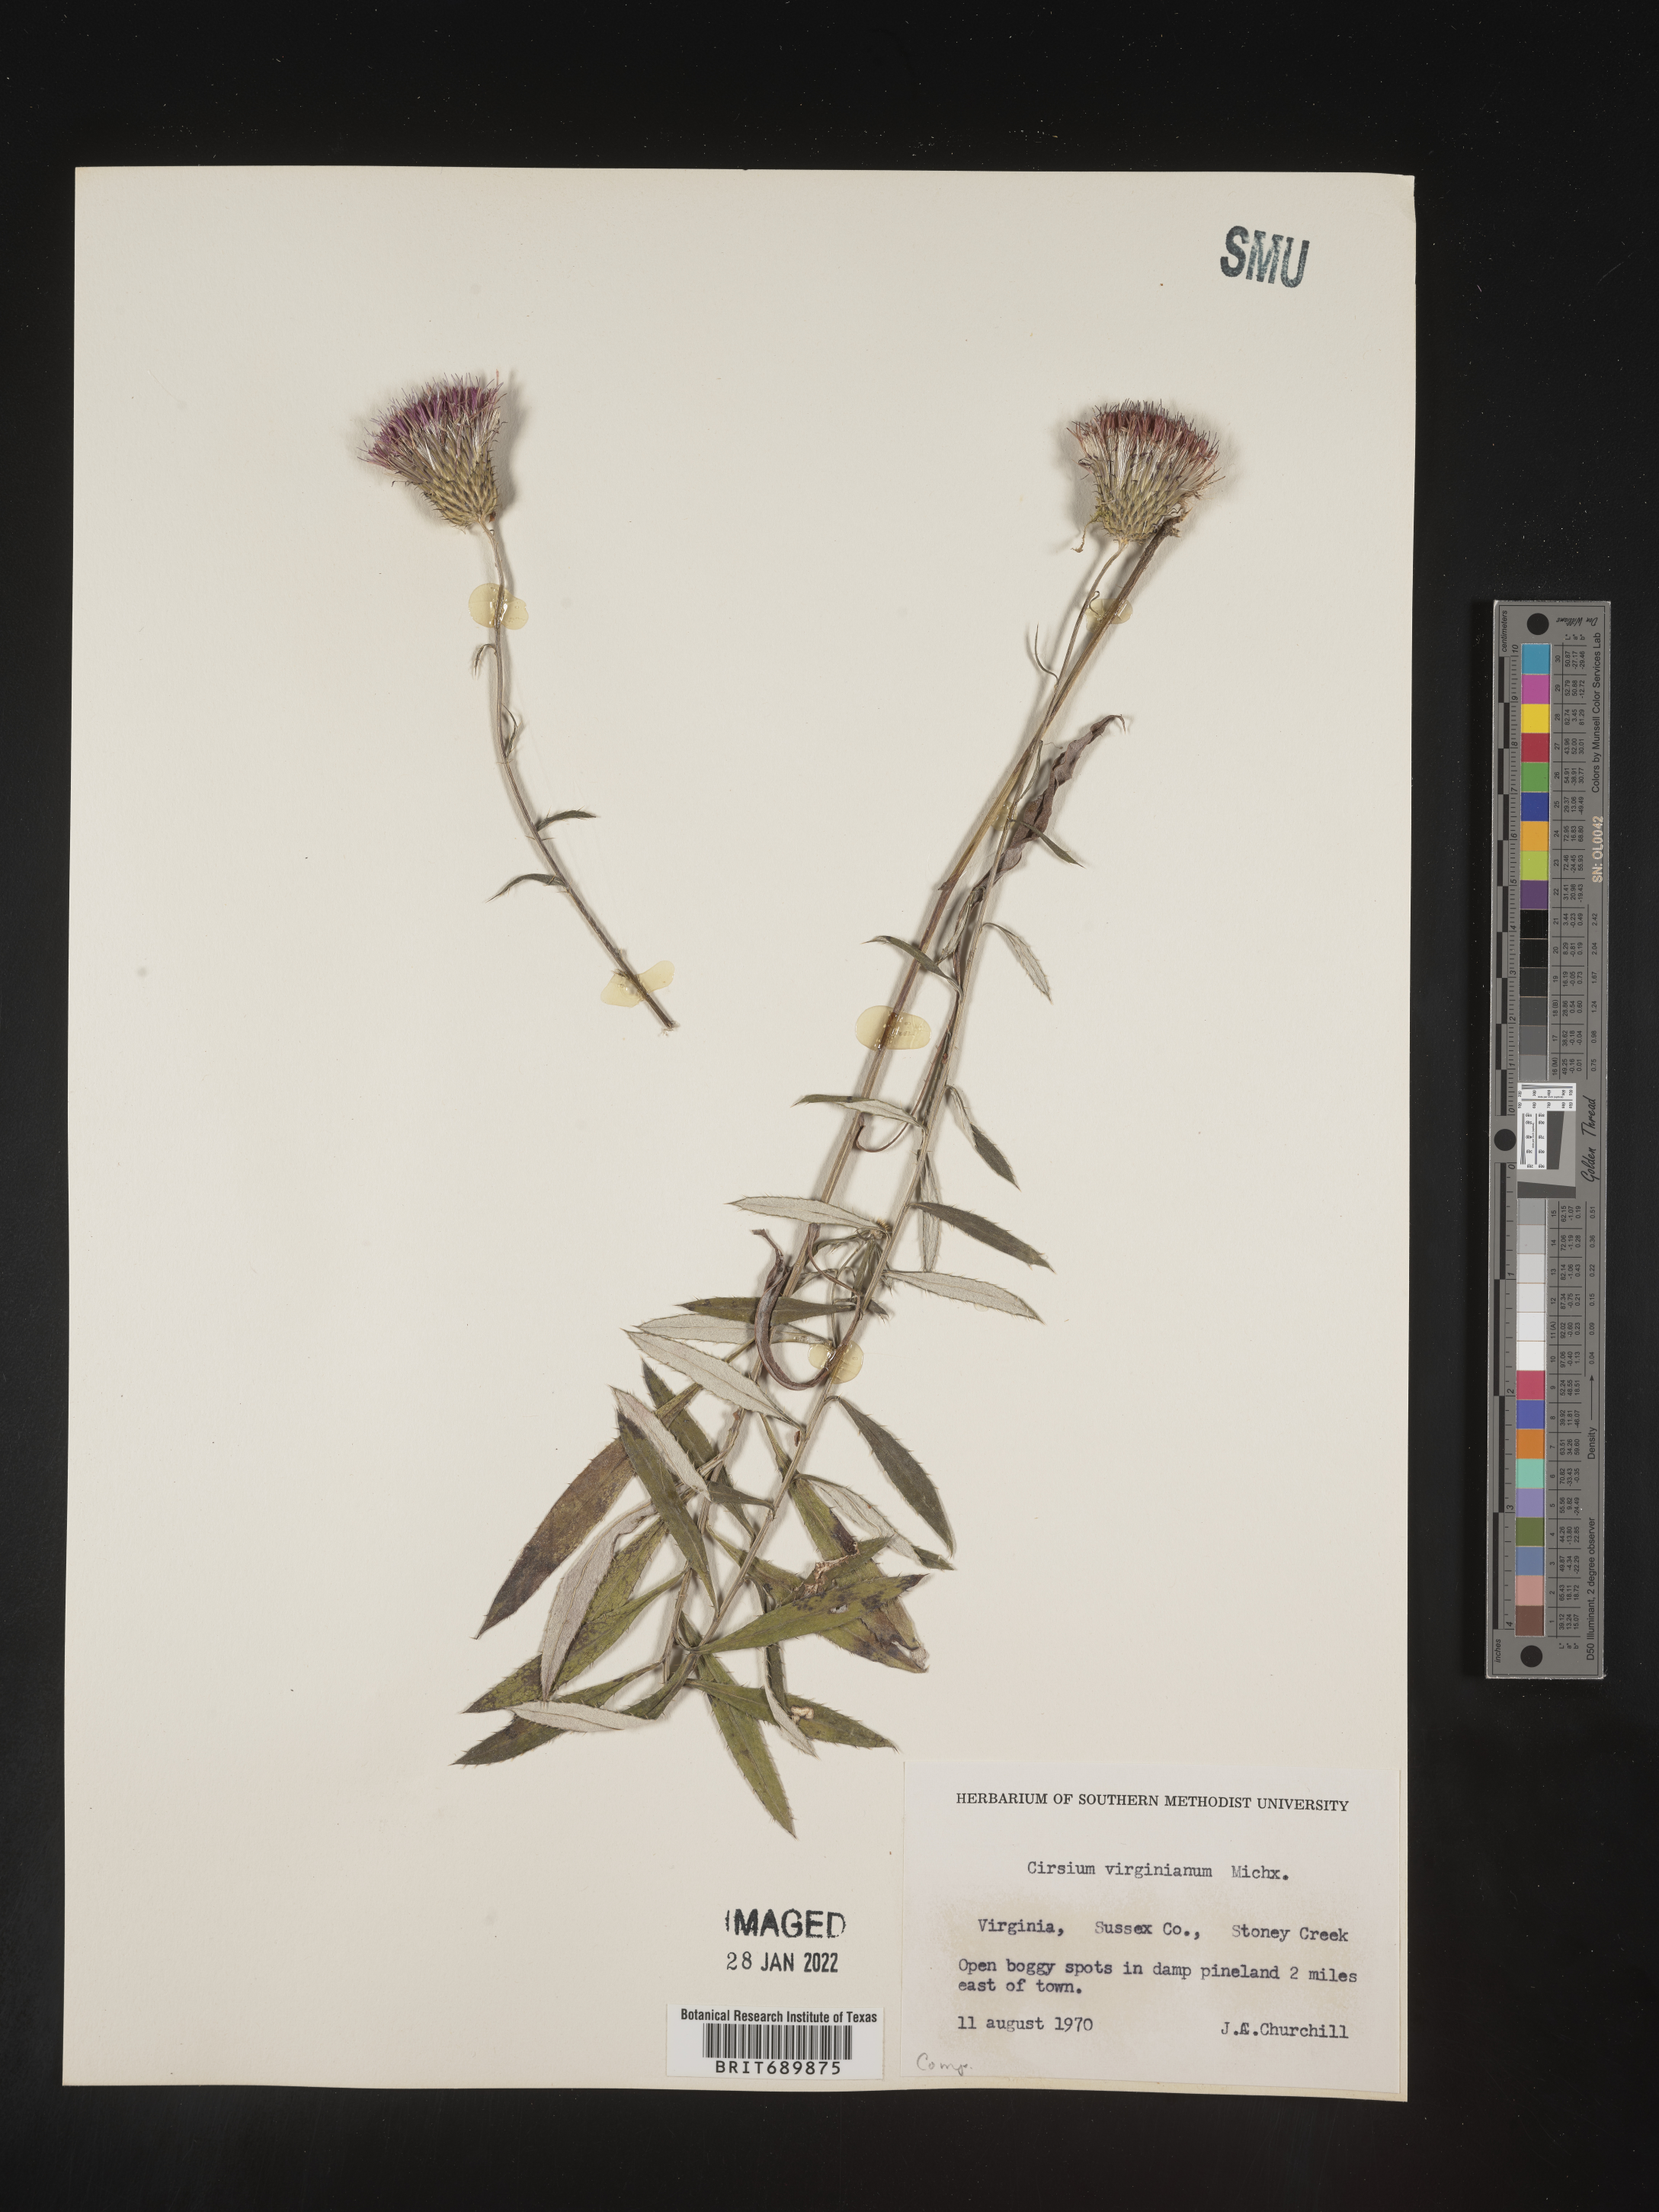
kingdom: Plantae
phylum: Tracheophyta
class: Magnoliopsida
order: Asterales
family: Asteraceae
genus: Cirsium
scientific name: Cirsium
